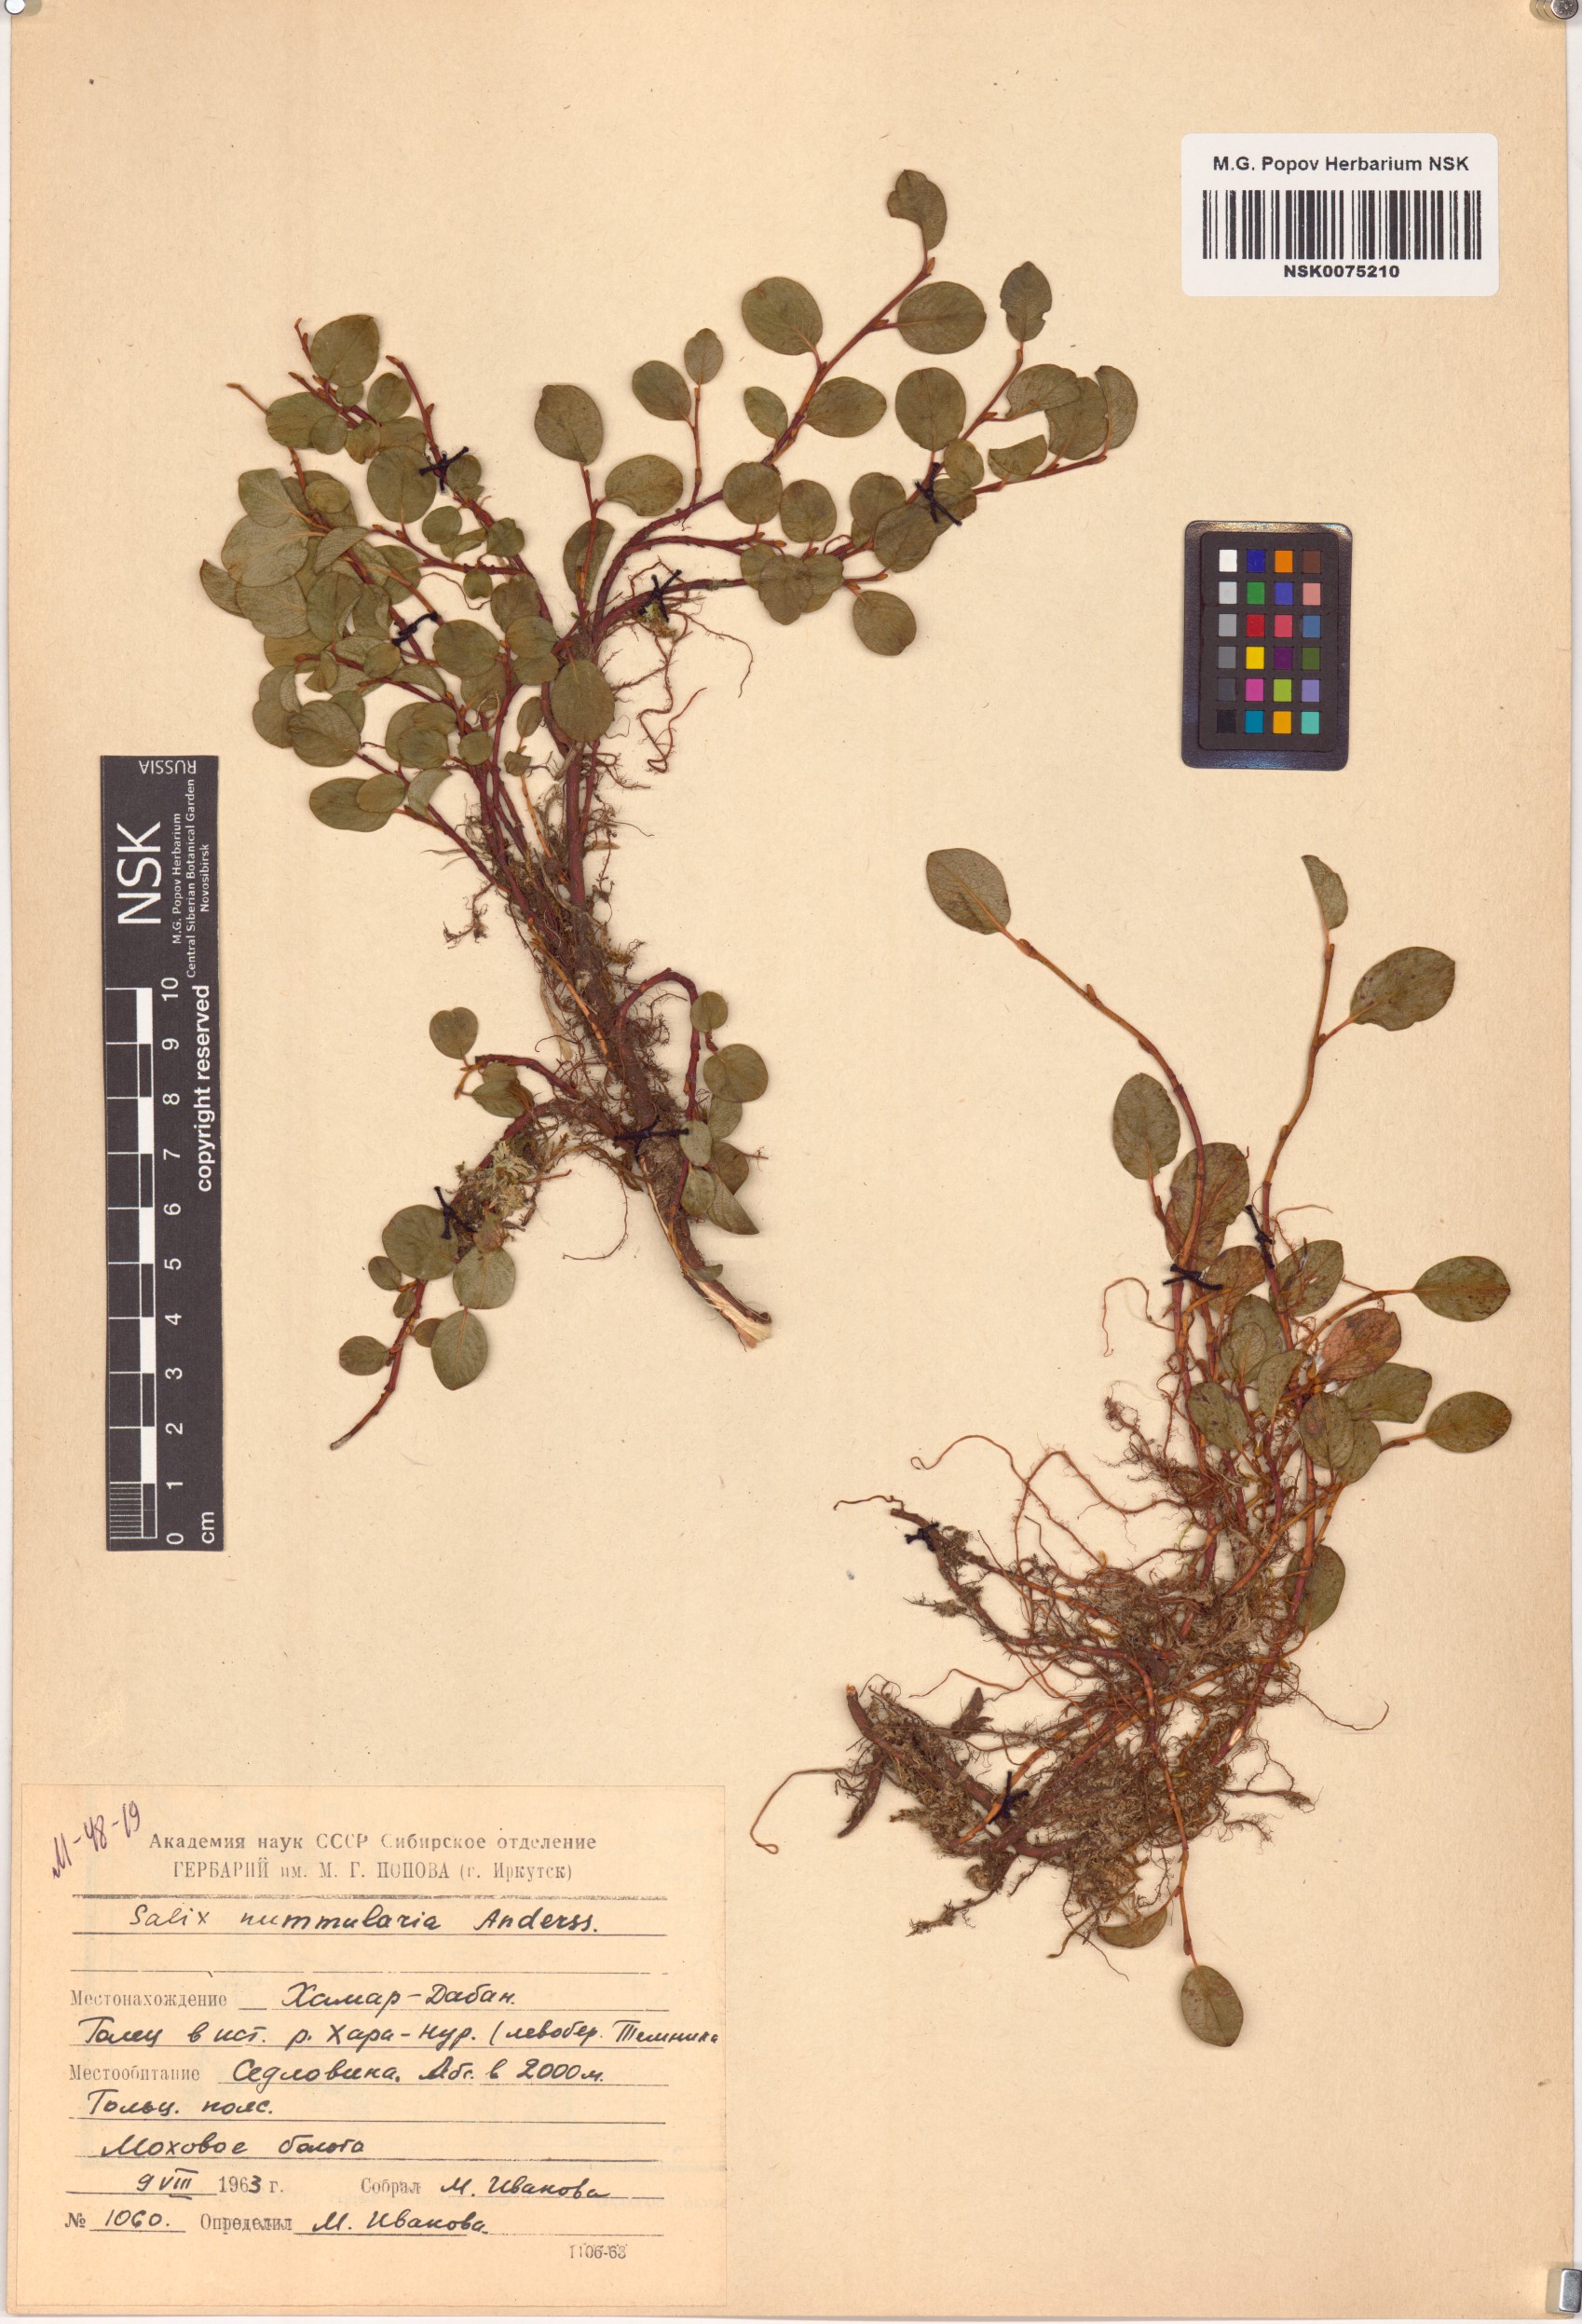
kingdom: Plantae
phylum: Tracheophyta
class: Magnoliopsida
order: Malpighiales
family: Salicaceae
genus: Salix
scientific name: Salix nummularia
